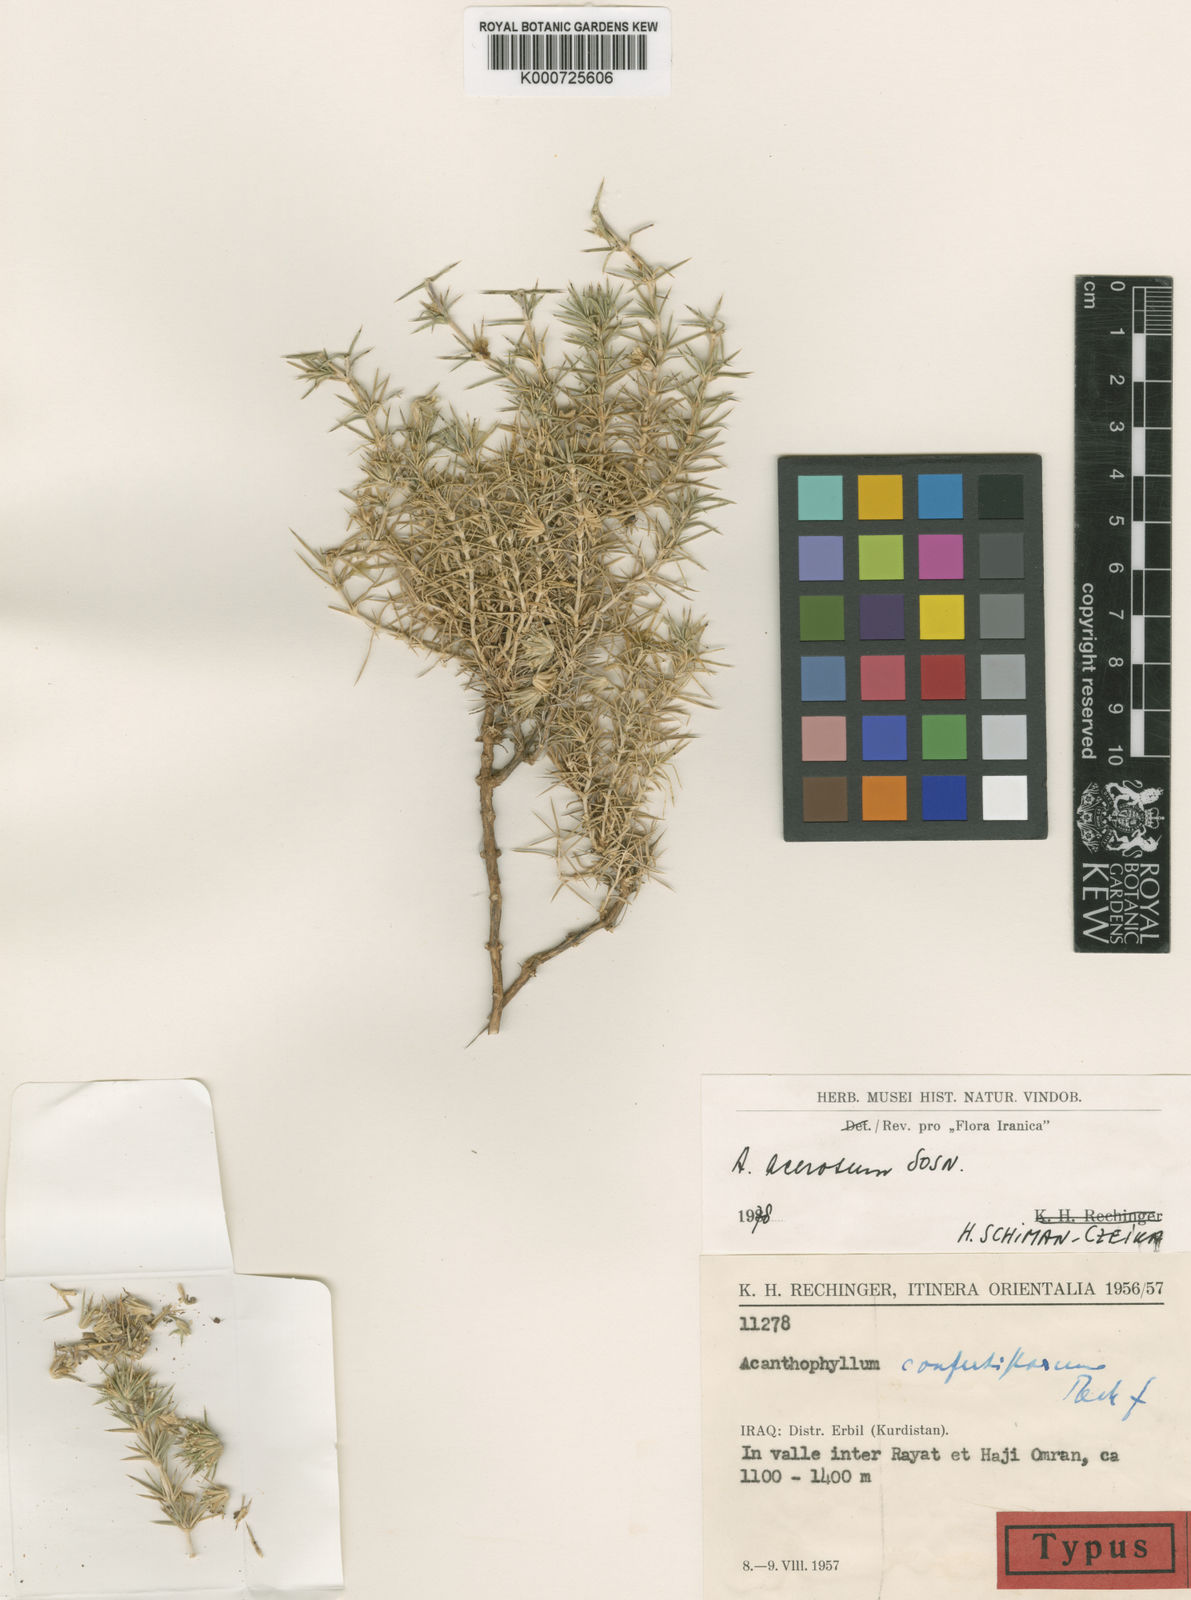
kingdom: Plantae
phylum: Tracheophyta
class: Magnoliopsida
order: Caryophyllales
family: Caryophyllaceae
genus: Acanthophyllum
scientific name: Acanthophyllum acerosum
